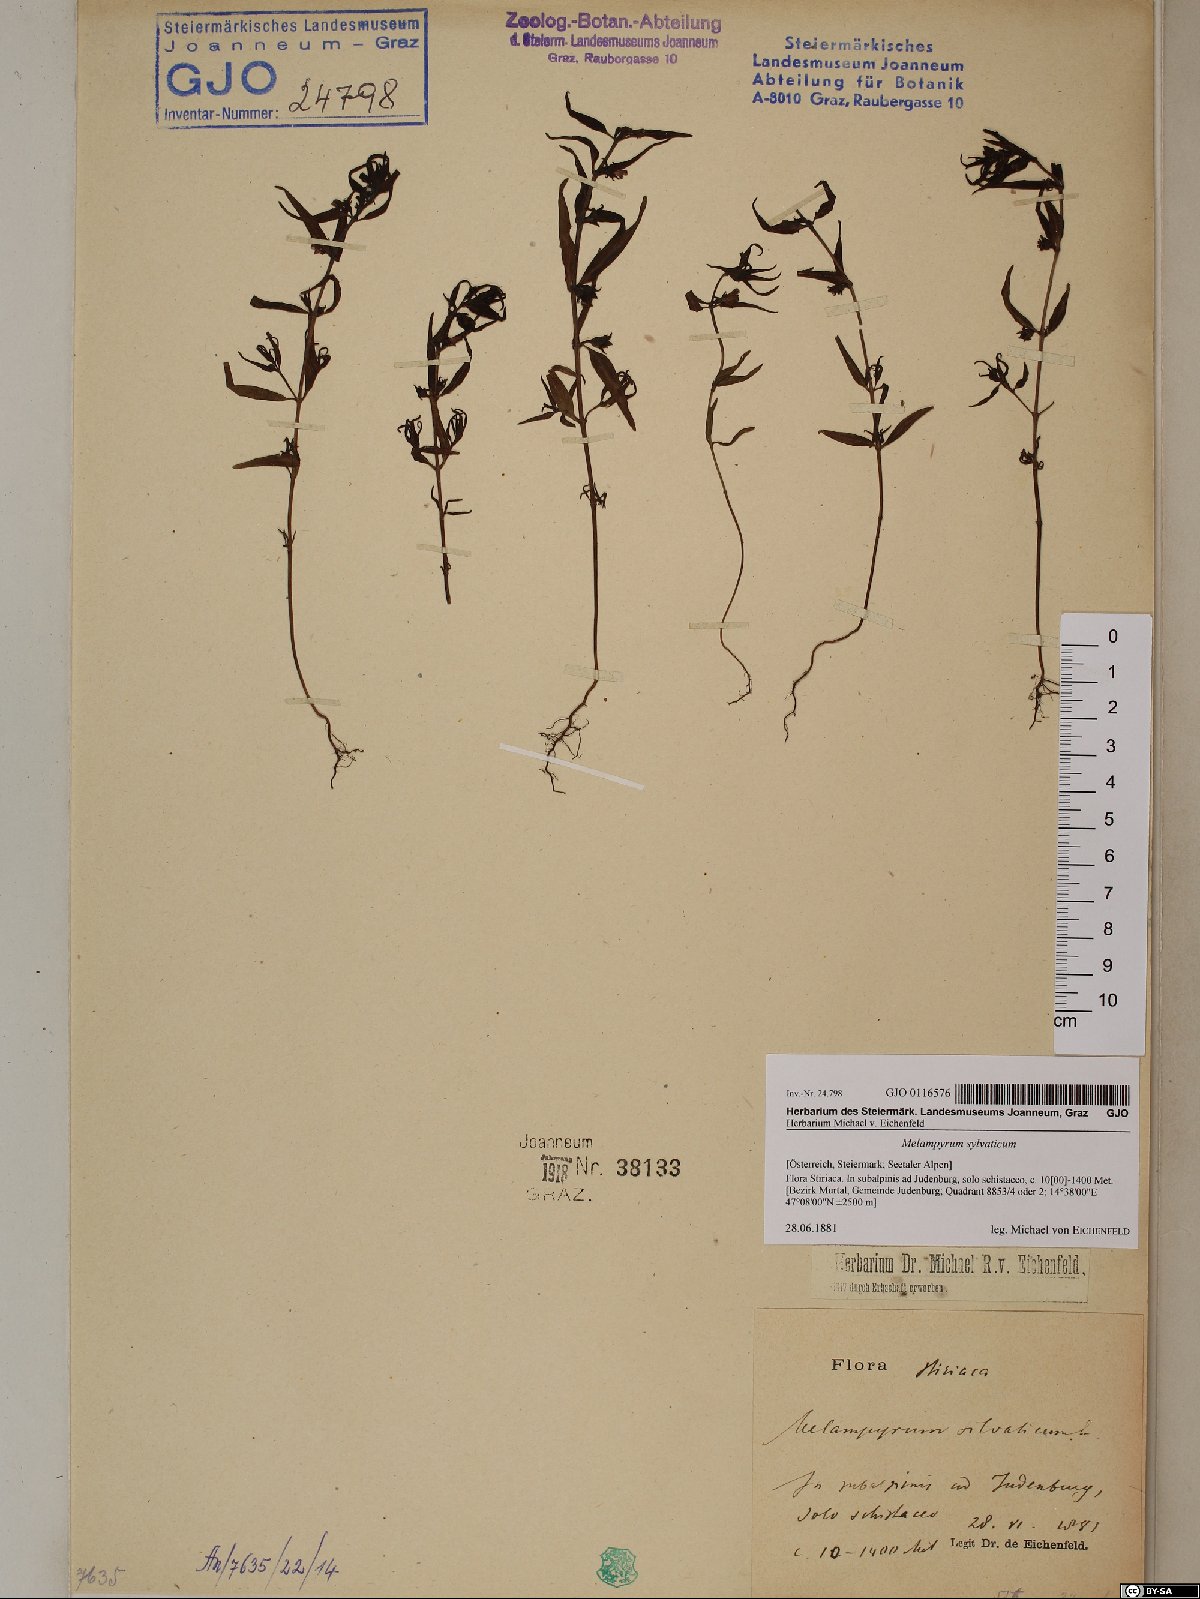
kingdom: Plantae
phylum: Tracheophyta
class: Magnoliopsida
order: Lamiales
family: Orobanchaceae
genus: Melampyrum
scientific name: Melampyrum sylvaticum
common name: Small cow-wheat
